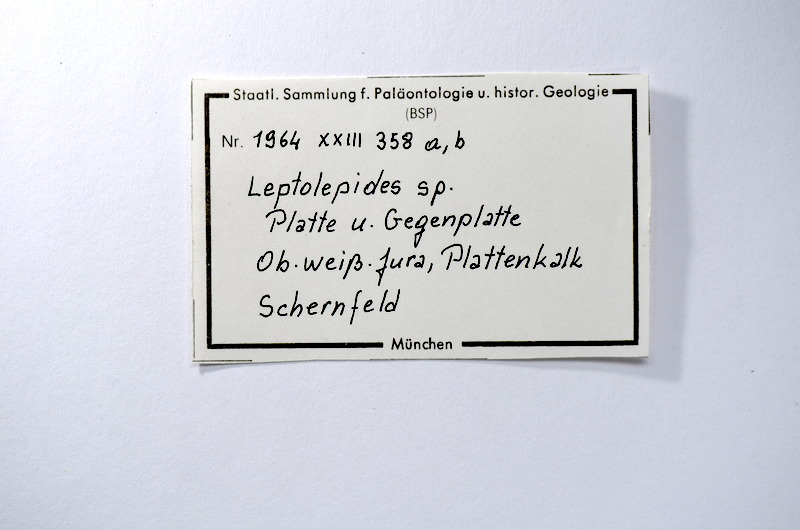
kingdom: Animalia
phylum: Chordata
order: Salmoniformes
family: Orthogonikleithridae
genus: Leptolepides
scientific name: Leptolepides
